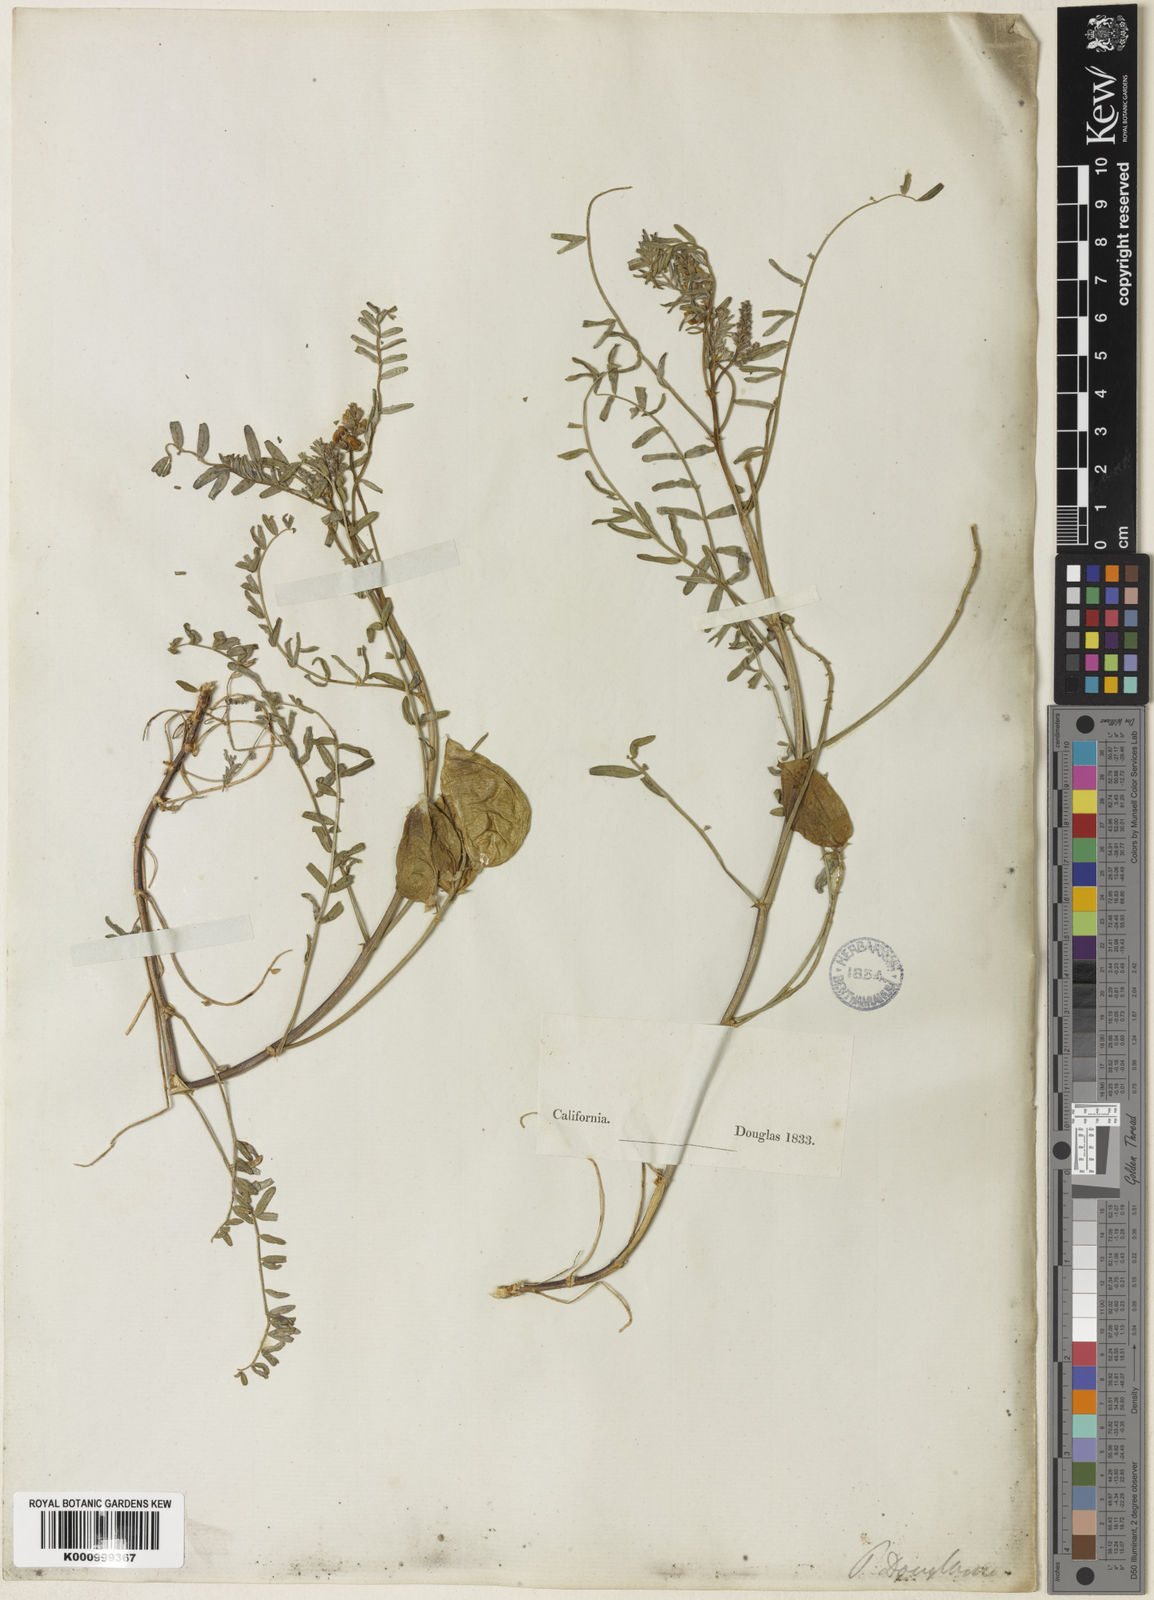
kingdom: Plantae
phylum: Tracheophyta
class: Magnoliopsida
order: Fabales
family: Fabaceae
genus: Astragalus
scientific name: Astragalus douglasii
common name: Jacumba milkvetch
